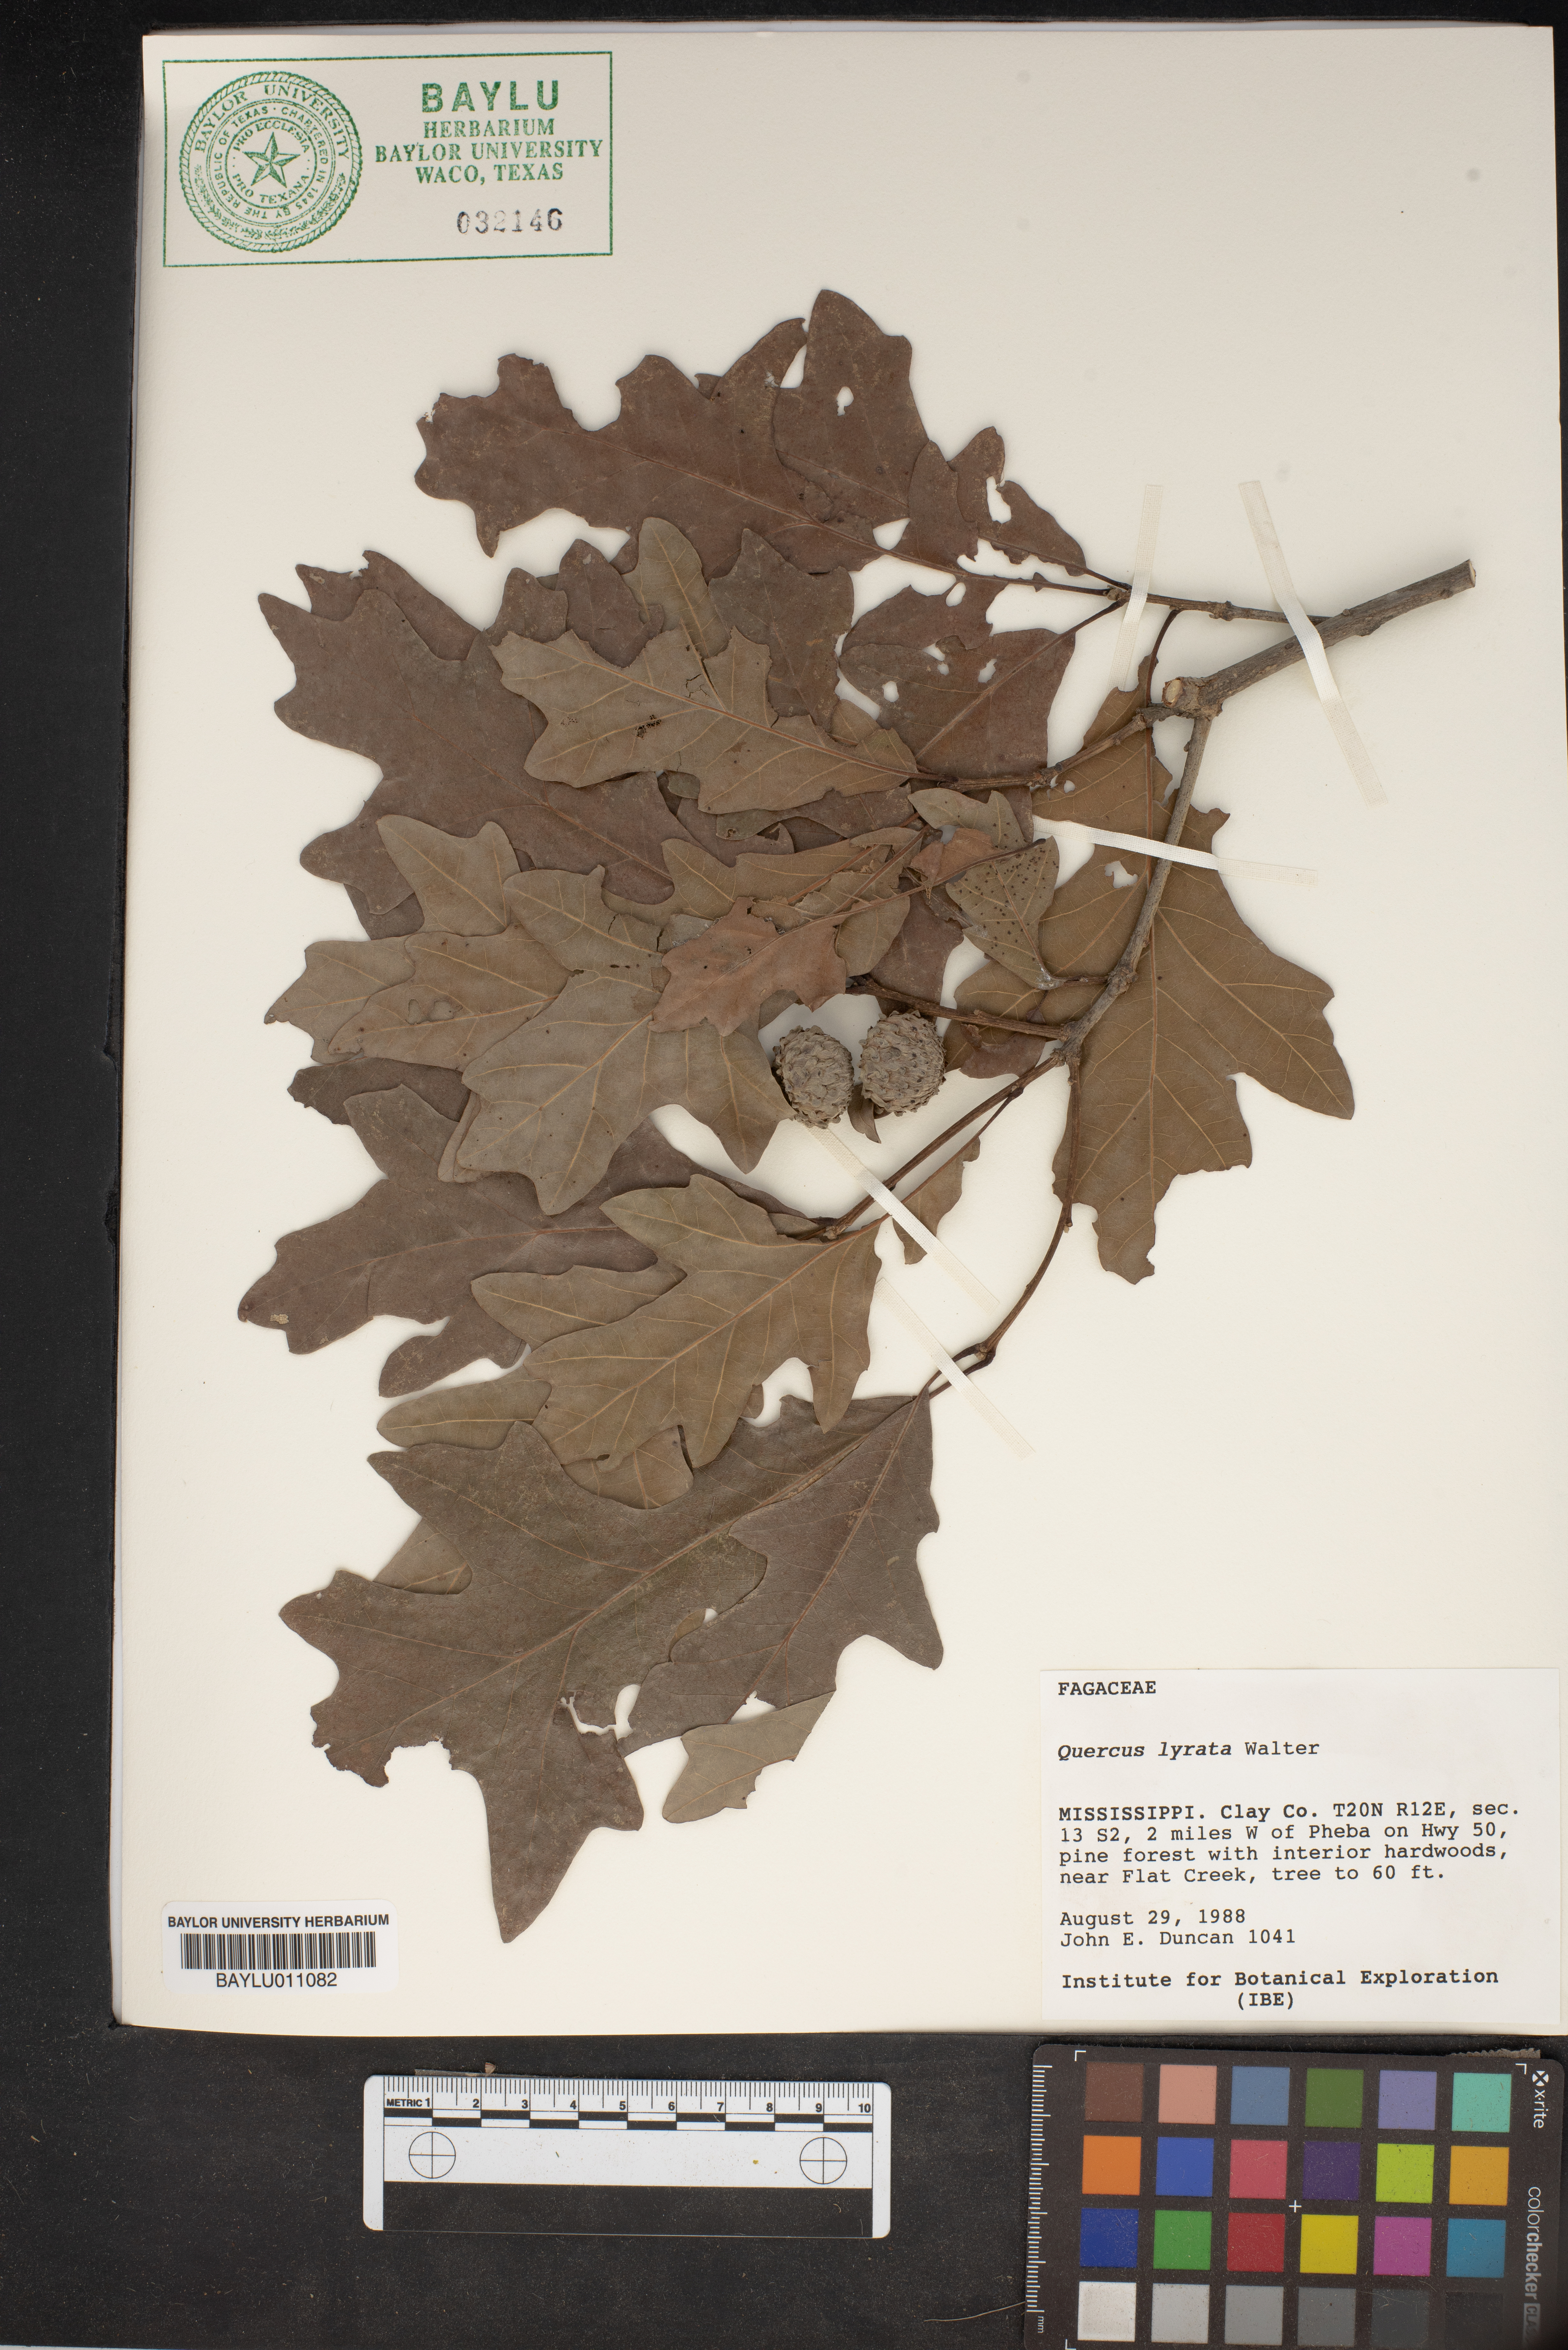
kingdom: Plantae
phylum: Tracheophyta
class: Magnoliopsida
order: Fagales
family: Fagaceae
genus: Quercus
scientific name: Quercus lyrata
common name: Overcup oak
